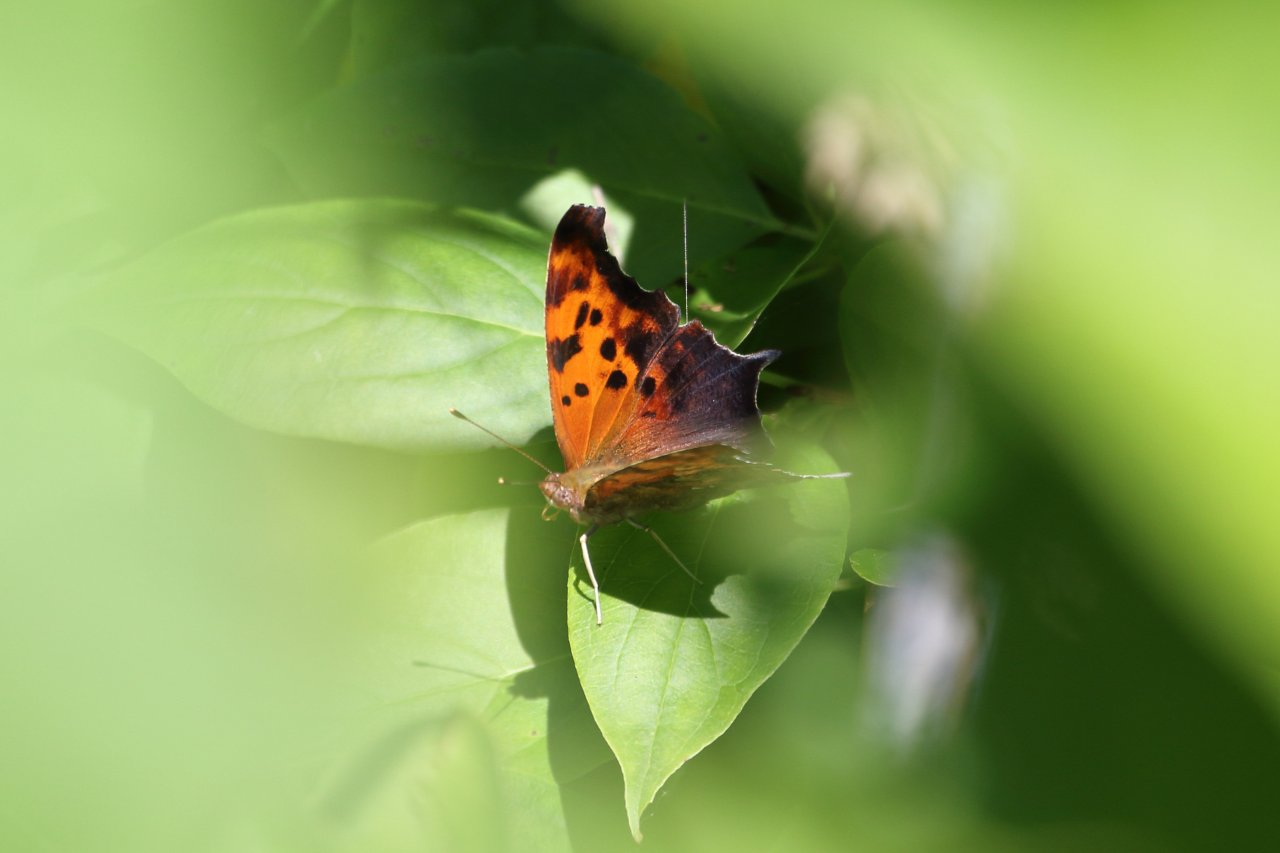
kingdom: Animalia
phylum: Arthropoda
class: Insecta
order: Lepidoptera
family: Nymphalidae
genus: Polygonia
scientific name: Polygonia interrogationis
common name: Question Mark
